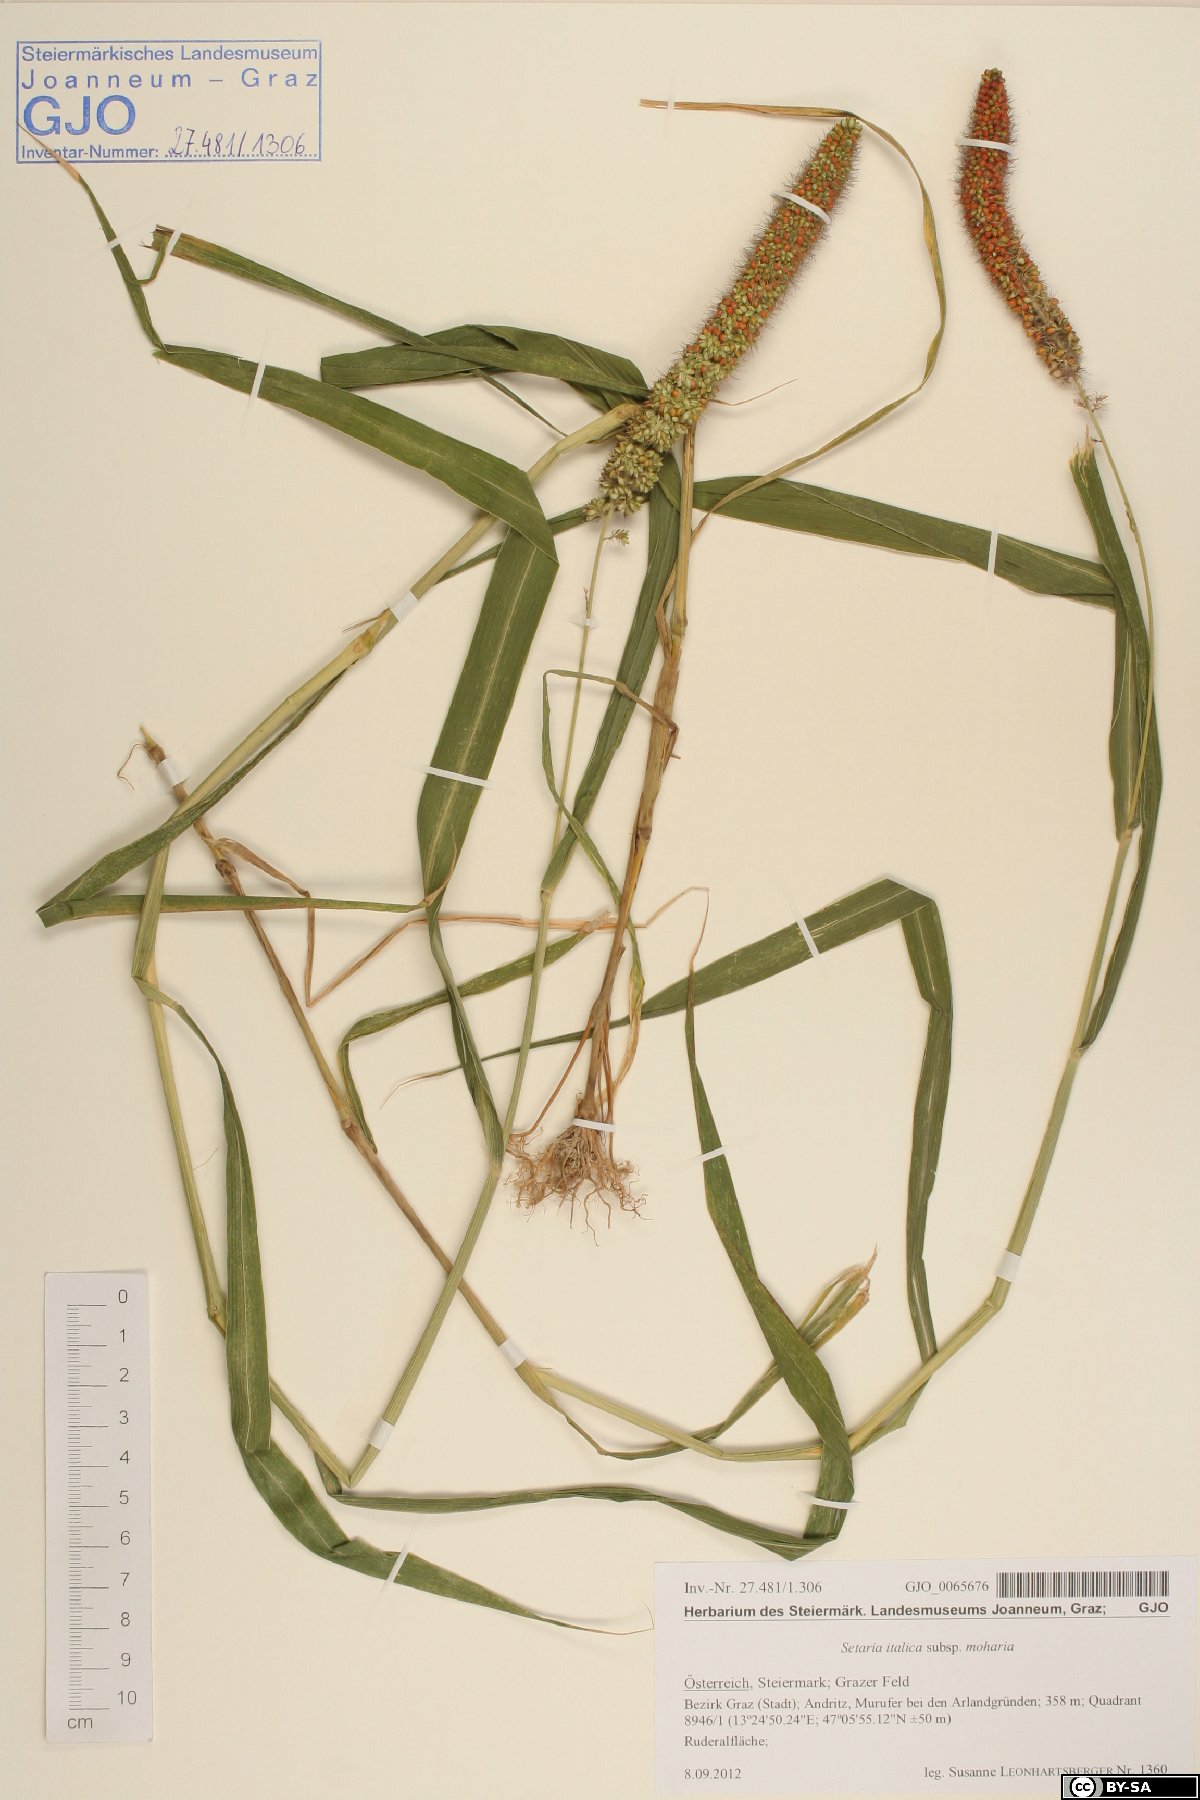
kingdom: Plantae
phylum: Tracheophyta
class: Liliopsida
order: Poales
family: Poaceae
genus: Setaria
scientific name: Setaria italica
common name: Foxtail bristle-grass
